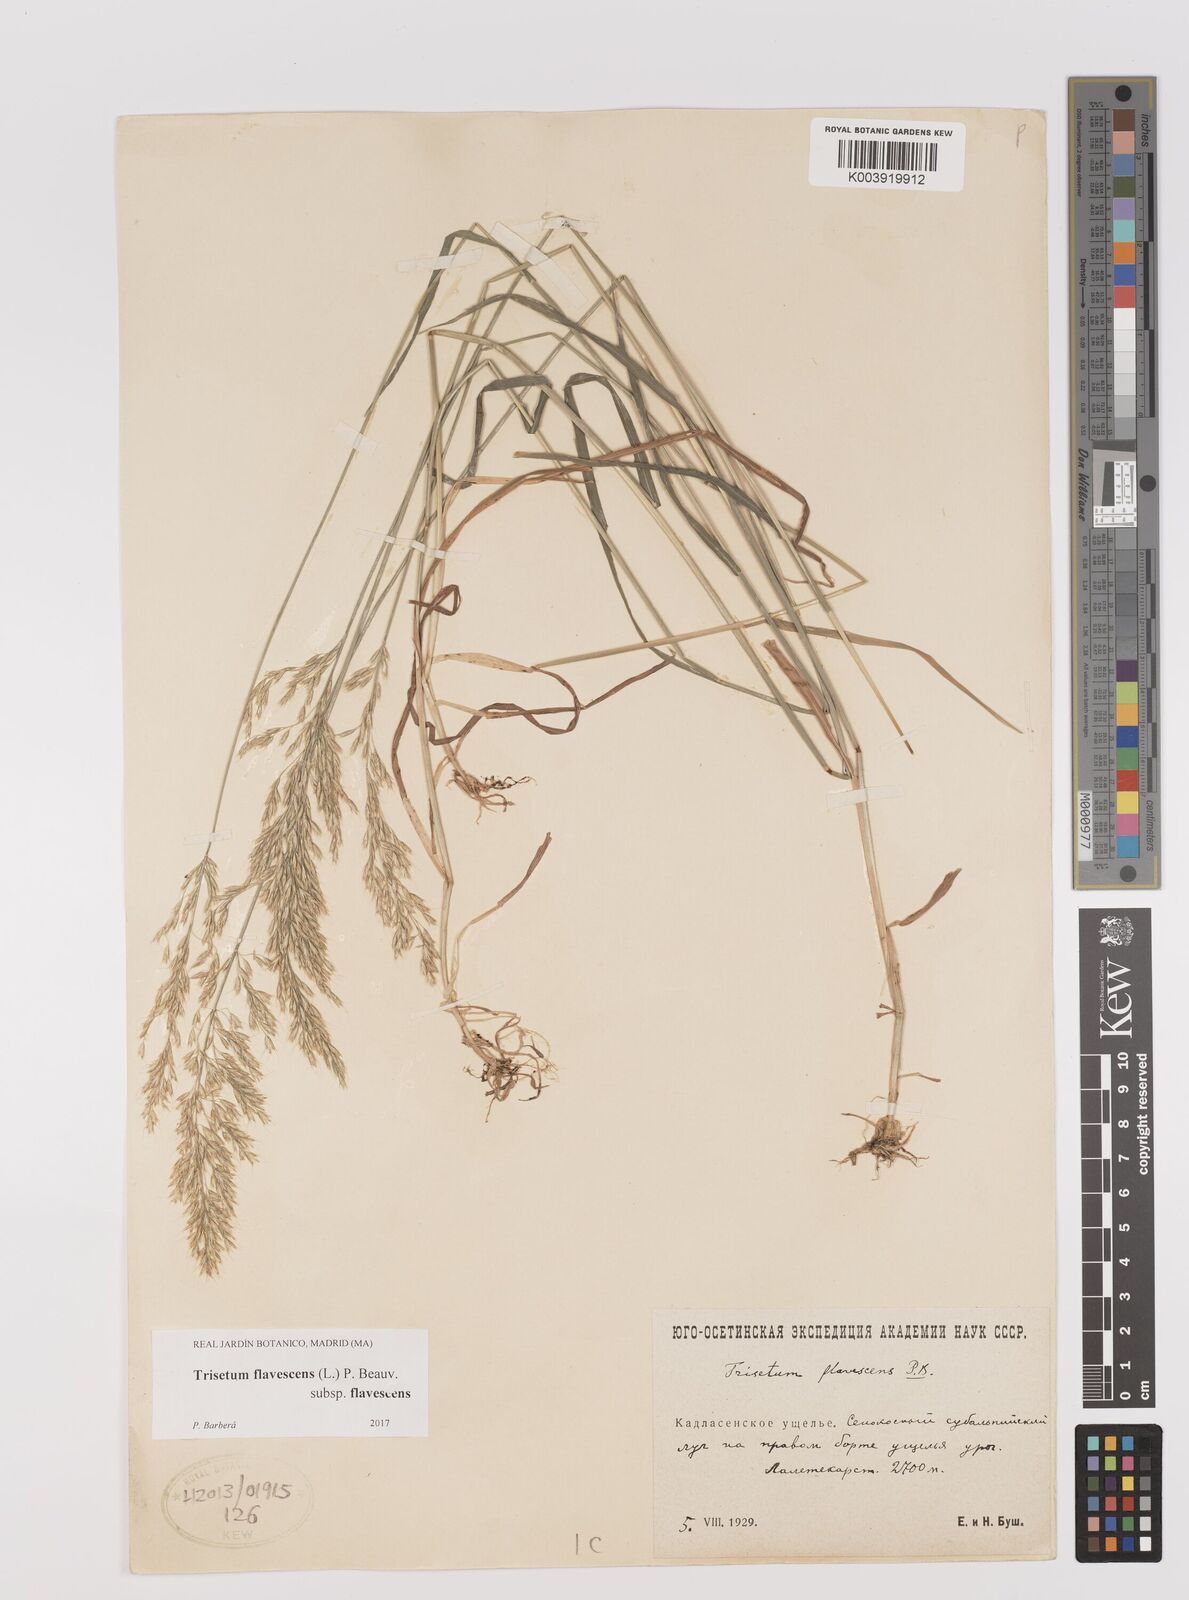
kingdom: Plantae
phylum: Tracheophyta
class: Liliopsida
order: Poales
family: Poaceae
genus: Trisetum
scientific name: Trisetum flavescens
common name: Yellow oat-grass
